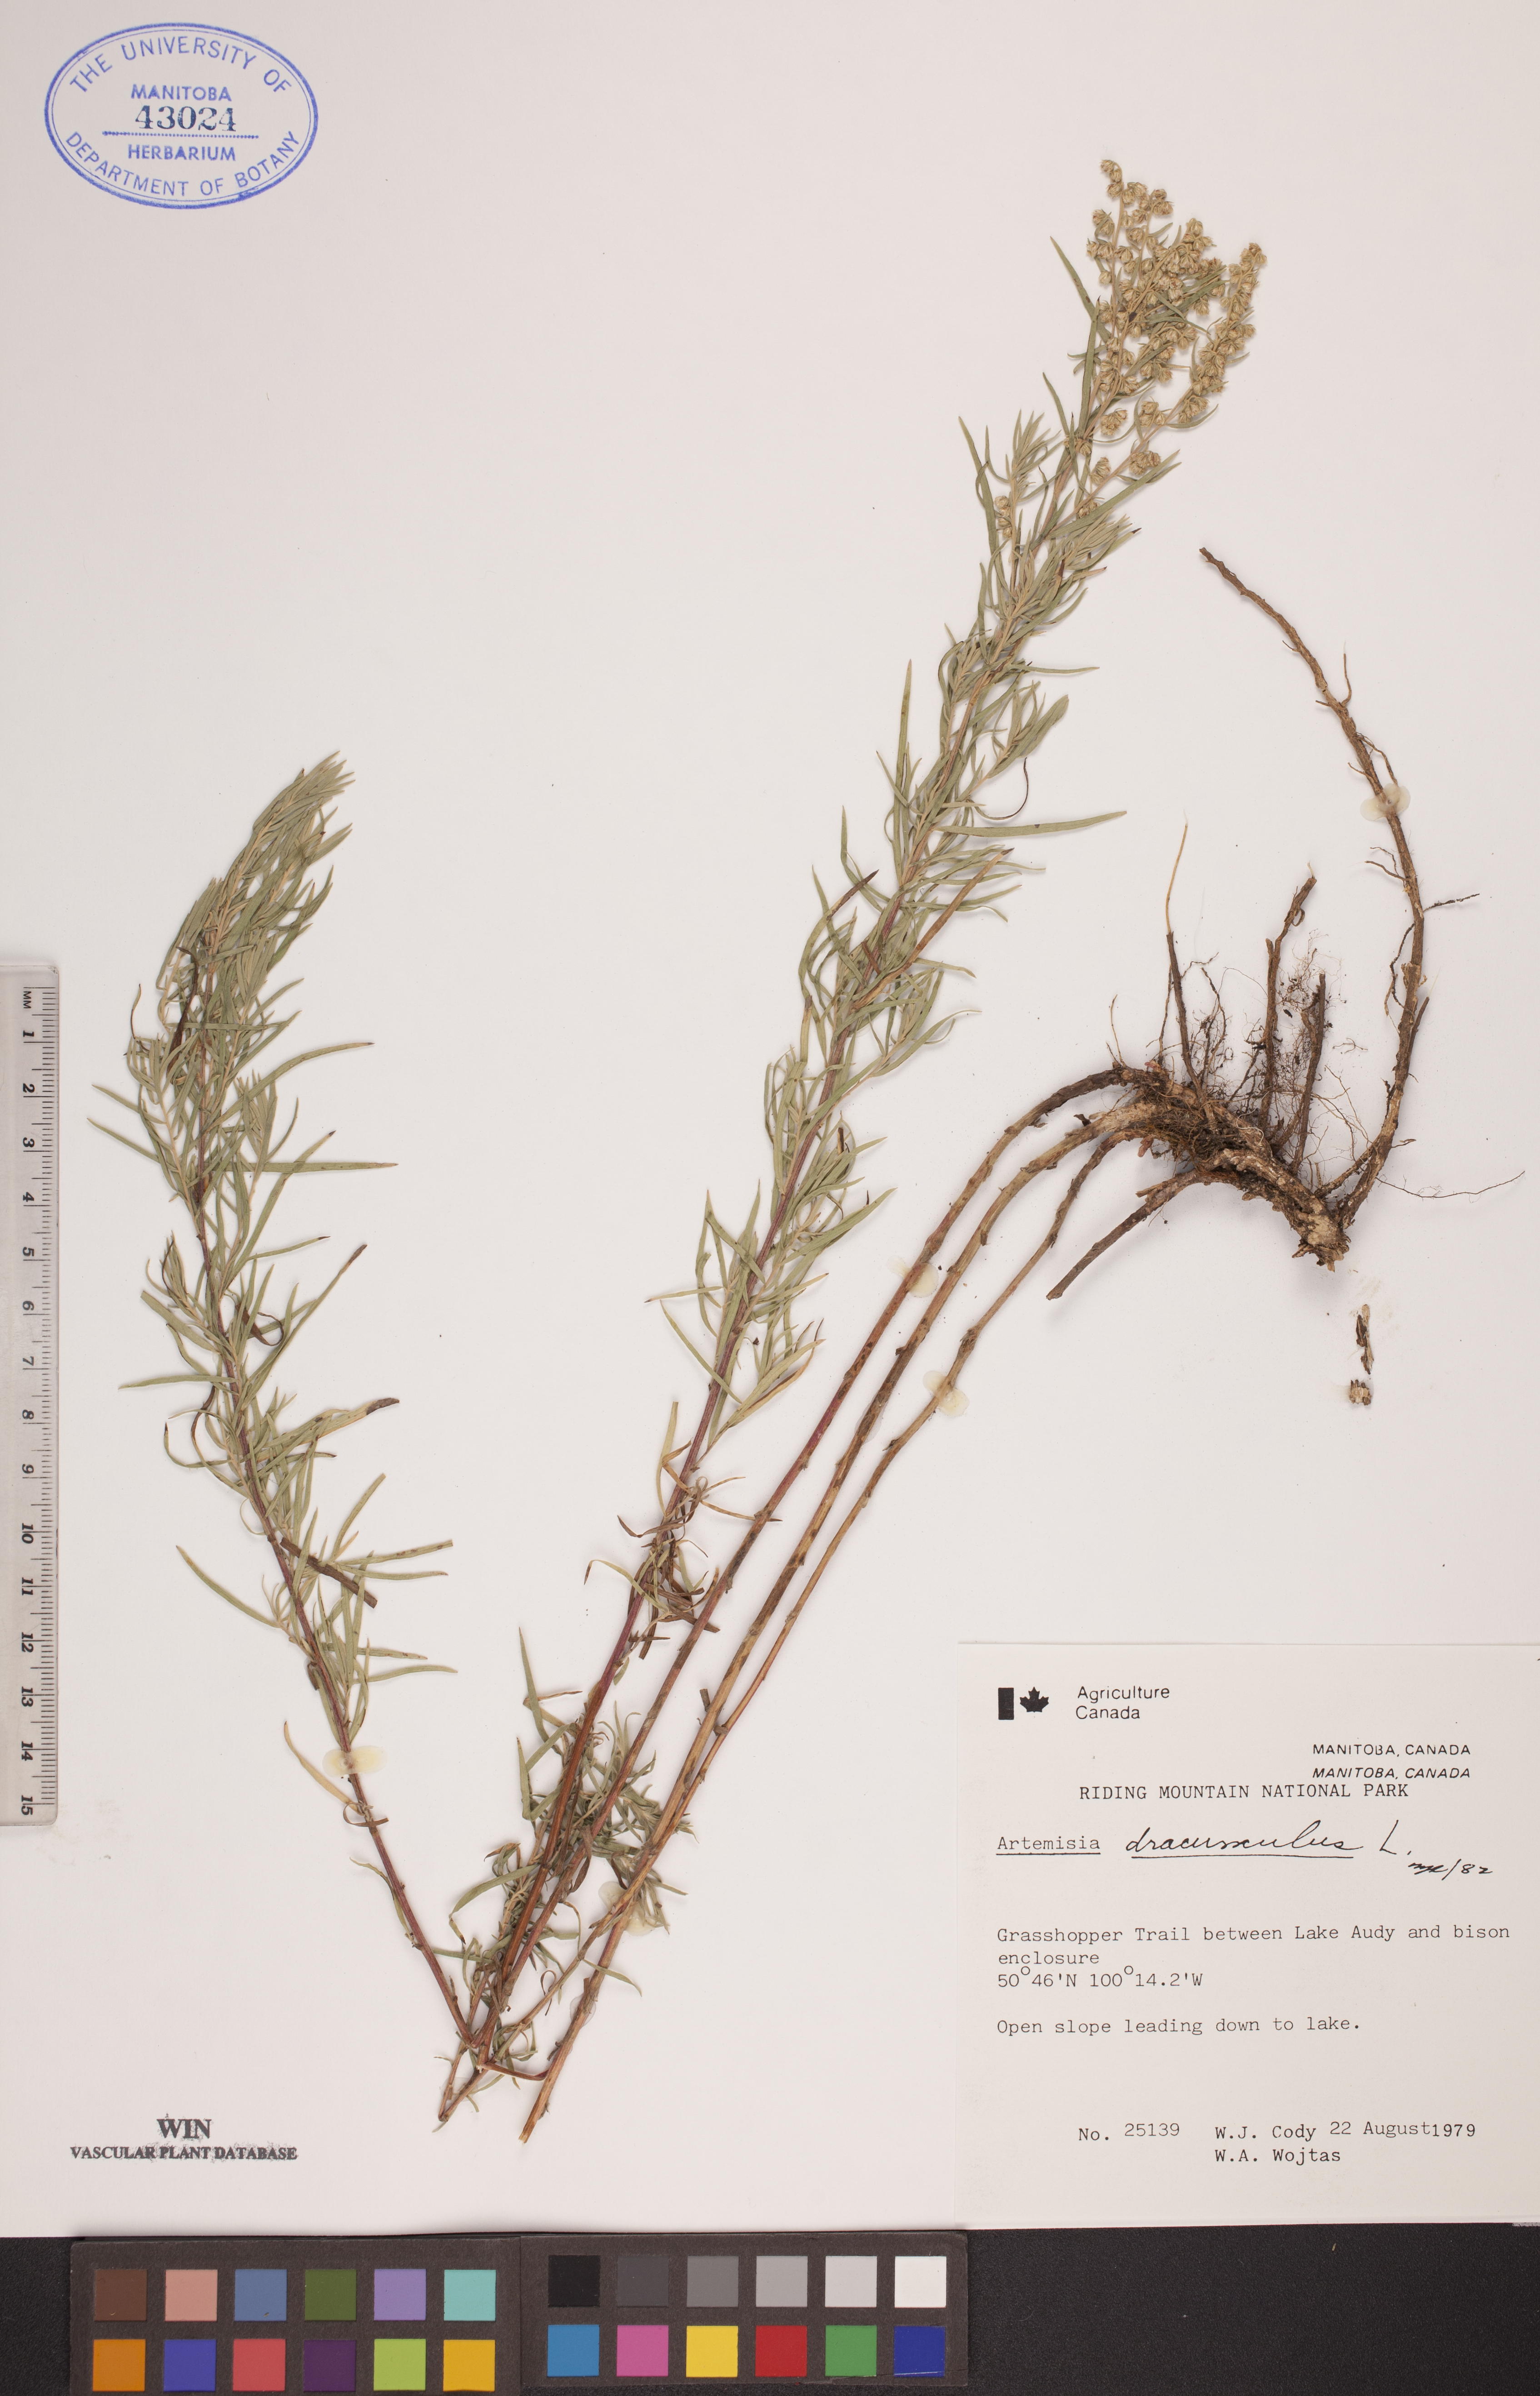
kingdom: Plantae
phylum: Tracheophyta
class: Magnoliopsida
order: Asterales
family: Asteraceae
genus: Artemisia
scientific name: Artemisia dracunculus
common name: Tarragon
